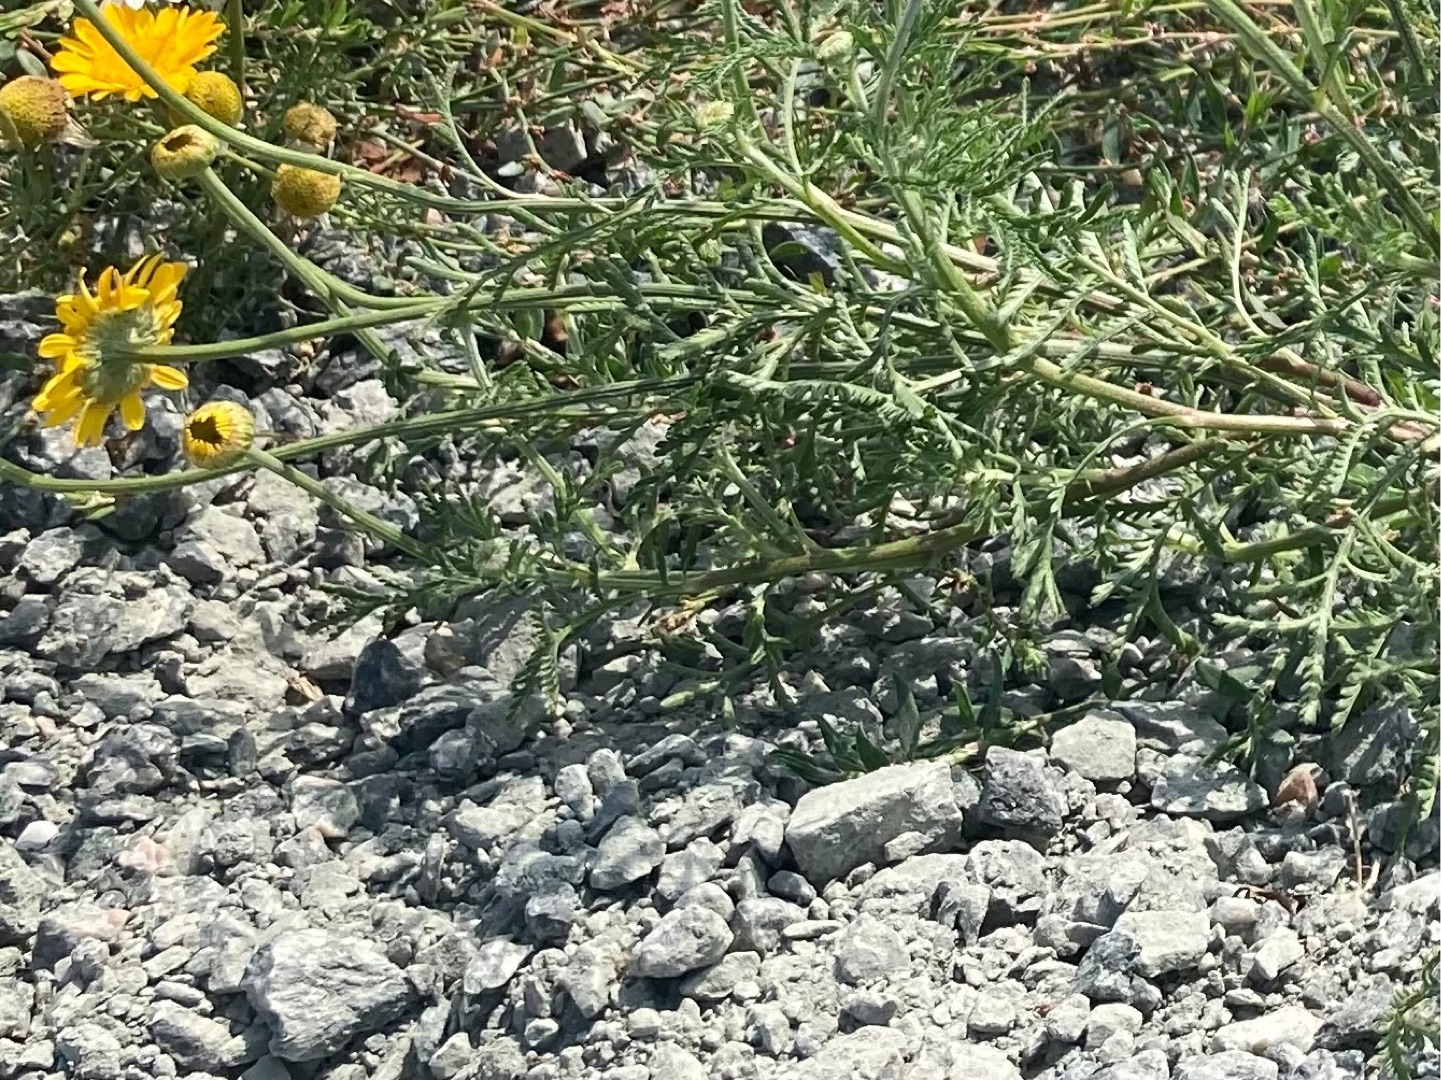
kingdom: Plantae
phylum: Tracheophyta
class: Magnoliopsida
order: Asterales
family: Asteraceae
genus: Cota
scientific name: Cota tinctoria
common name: Farve-gåseurt
